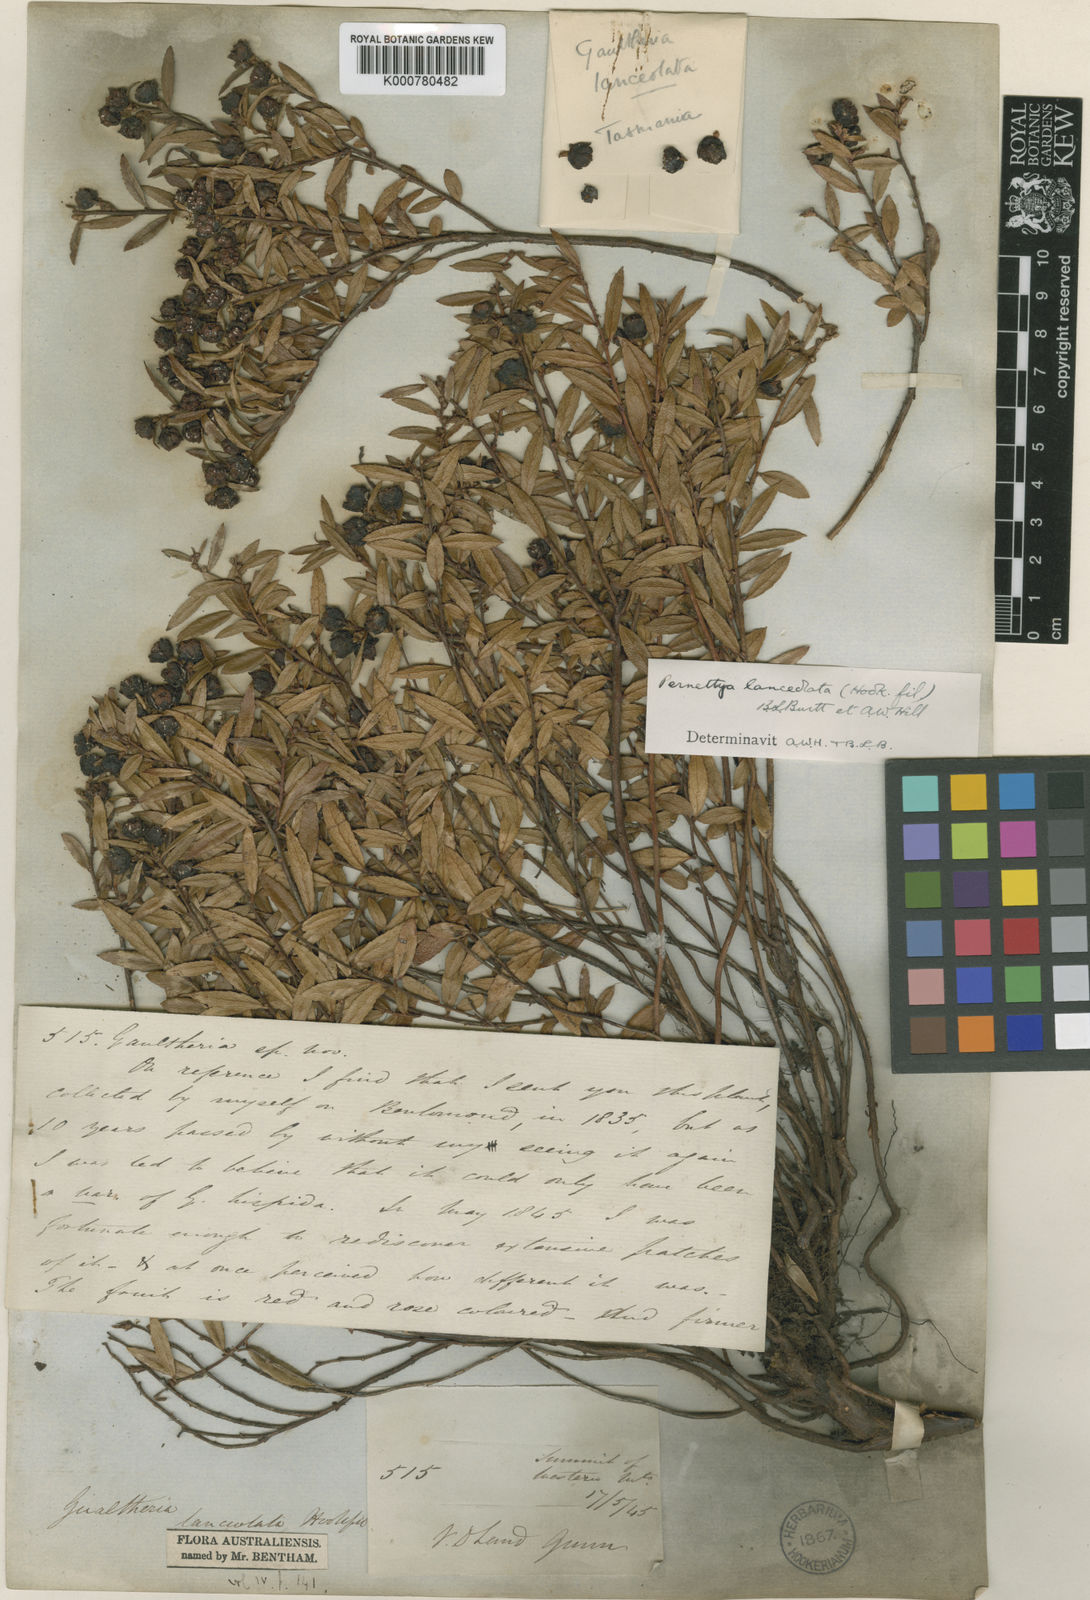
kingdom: Plantae
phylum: Tracheophyta
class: Magnoliopsida
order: Ericales
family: Ericaceae
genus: Gaultheria
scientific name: Gaultheria
